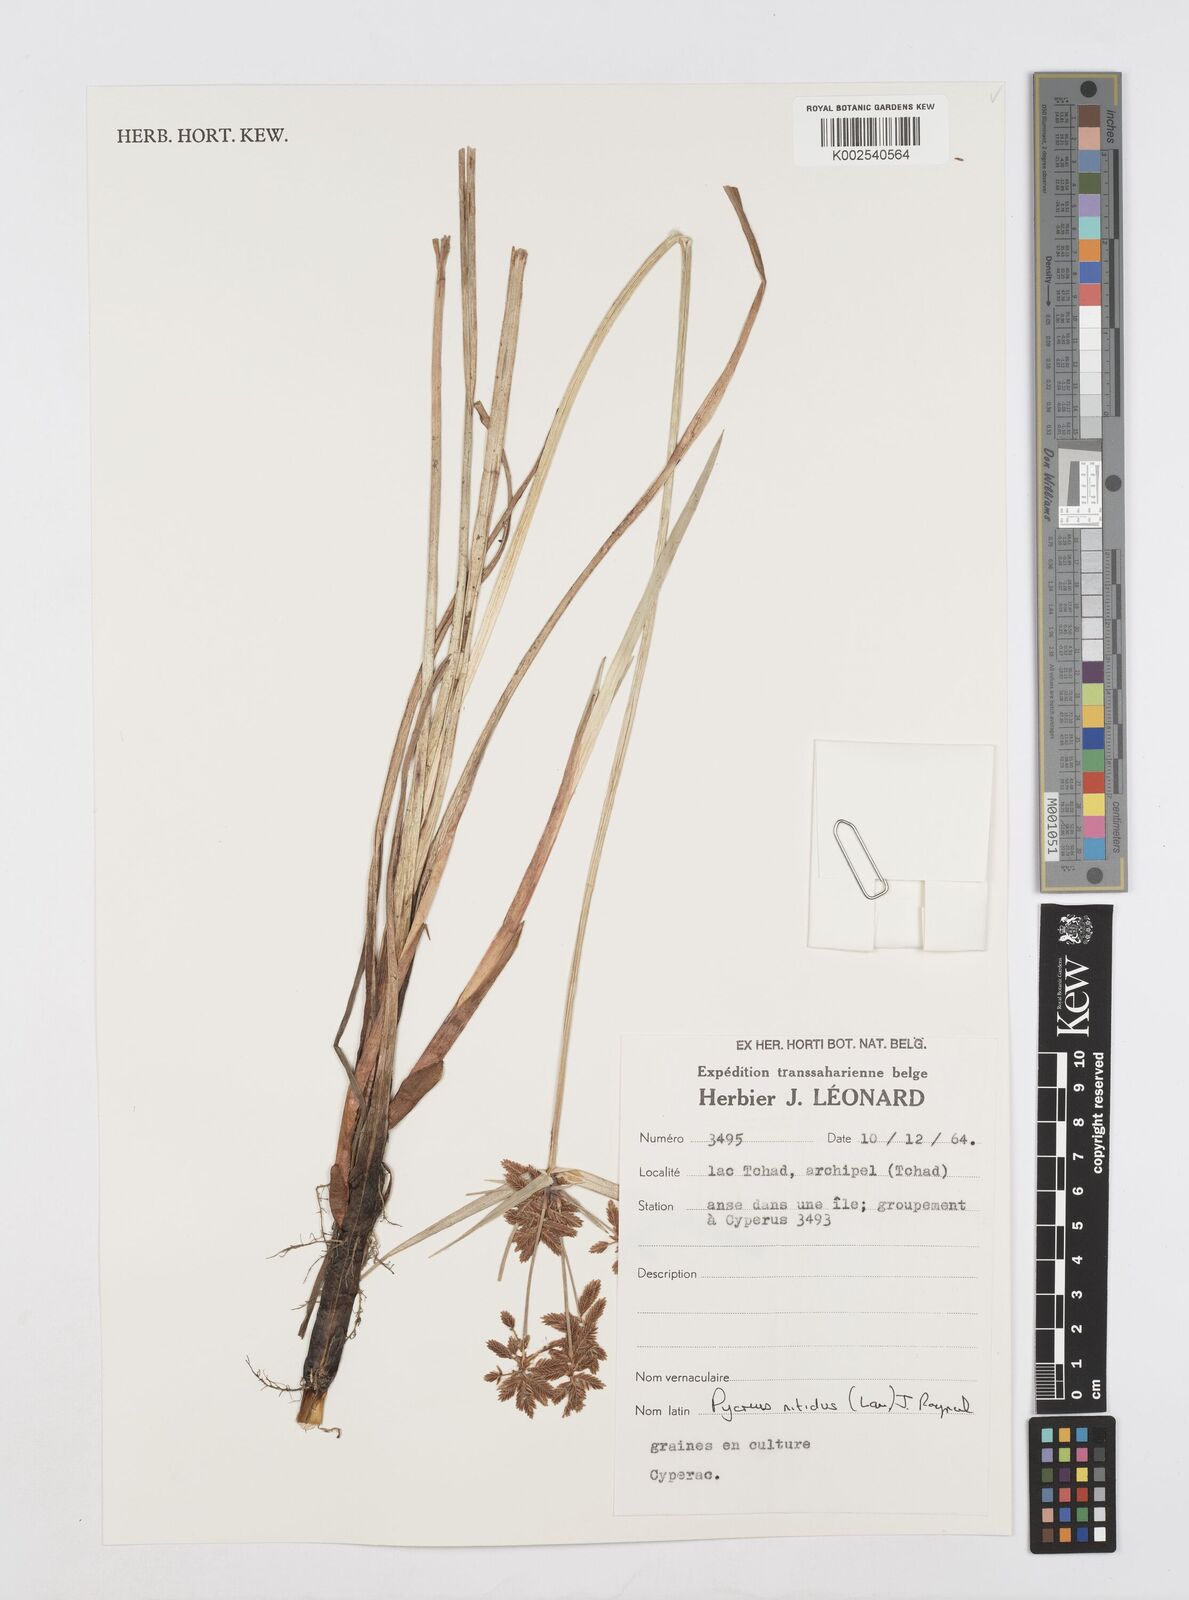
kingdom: Plantae
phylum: Tracheophyta
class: Liliopsida
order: Poales
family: Cyperaceae
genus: Cyperus
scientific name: Cyperus nitidus
